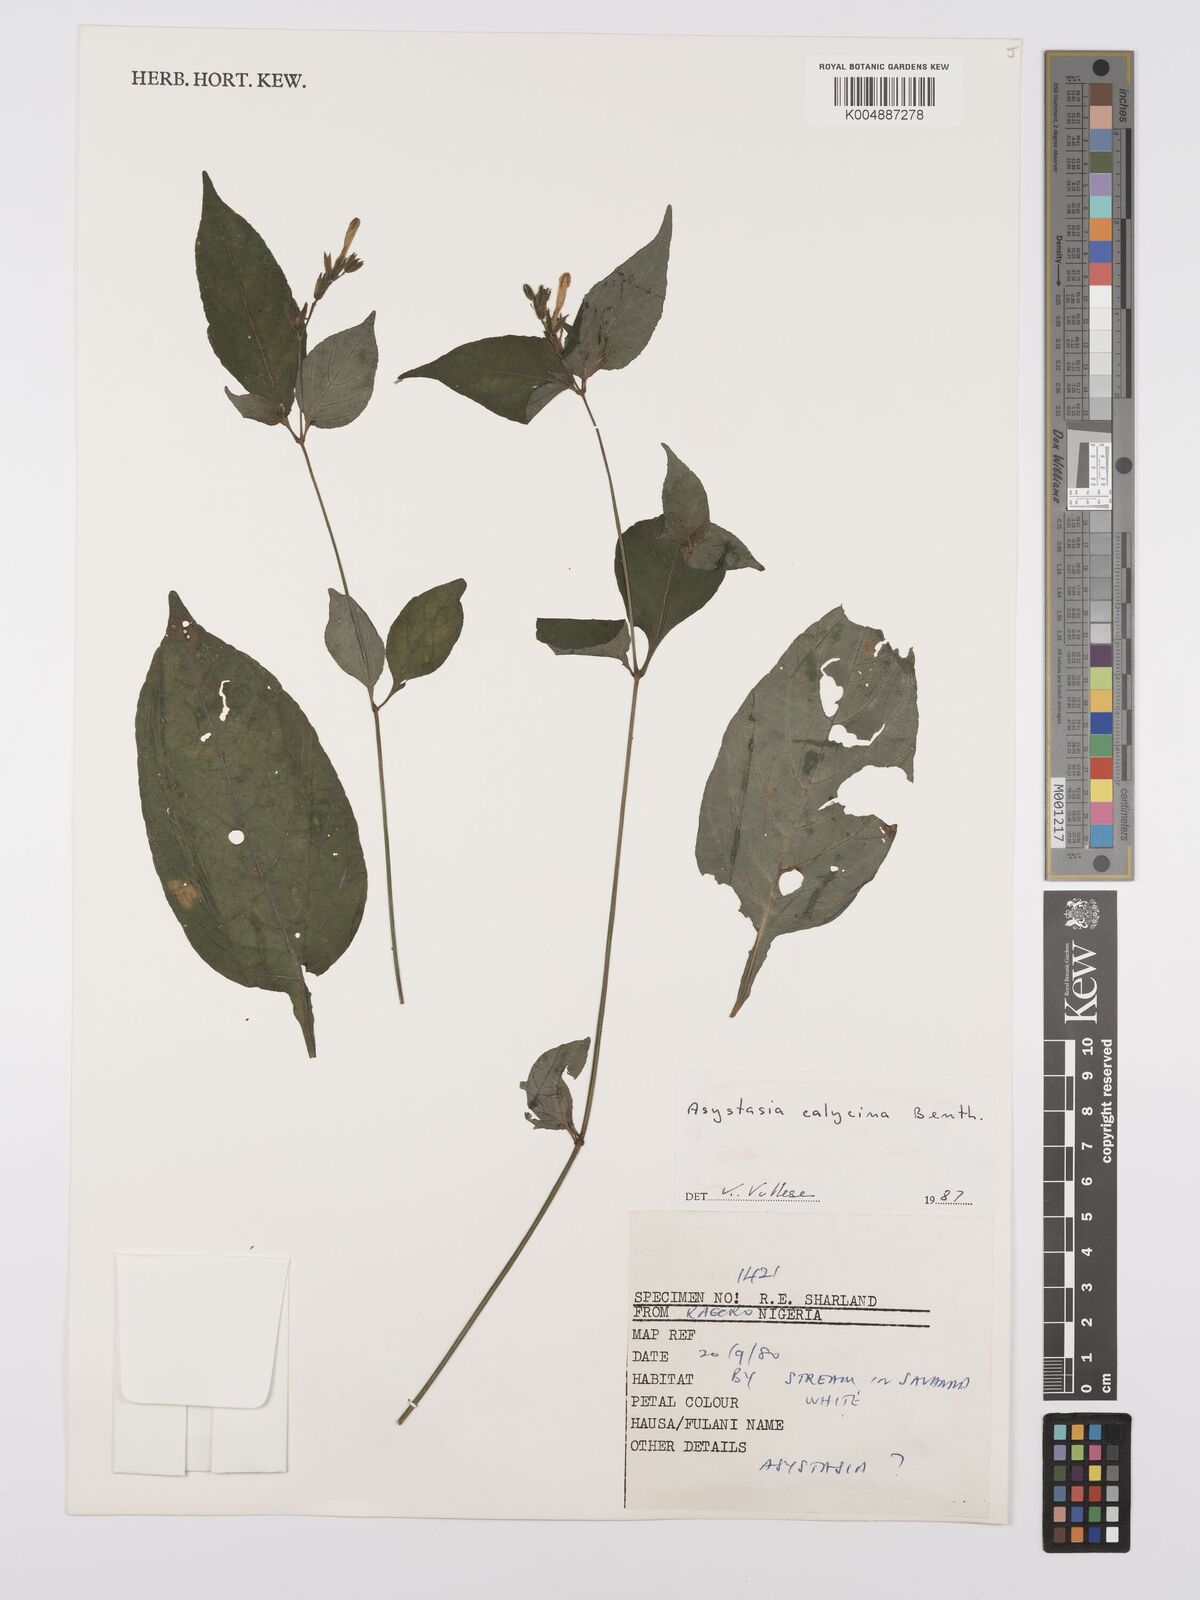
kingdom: Plantae
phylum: Tracheophyta
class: Magnoliopsida
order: Lamiales
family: Acanthaceae
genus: Asystasia
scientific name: Asystasia buettneri
